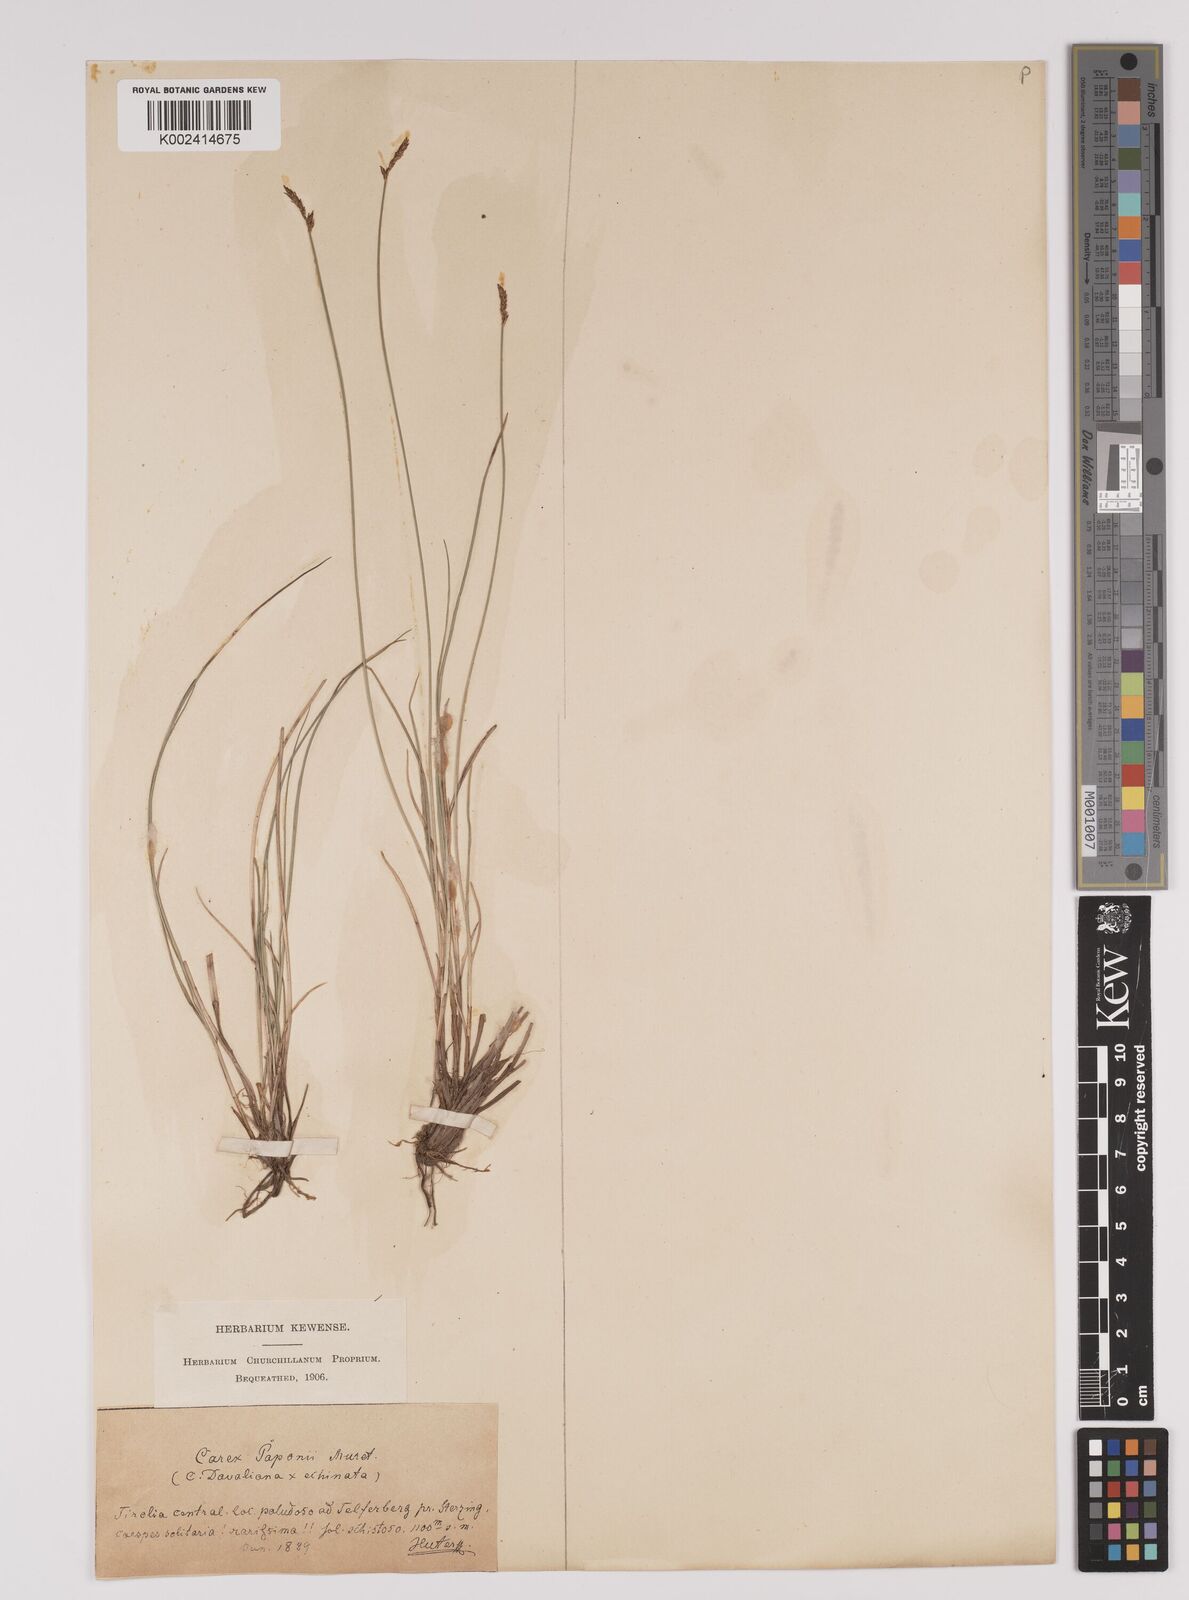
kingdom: Plantae
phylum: Tracheophyta
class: Liliopsida
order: Poales
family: Cyperaceae
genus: Carex
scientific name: Carex davalliana
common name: Davall's sedge
